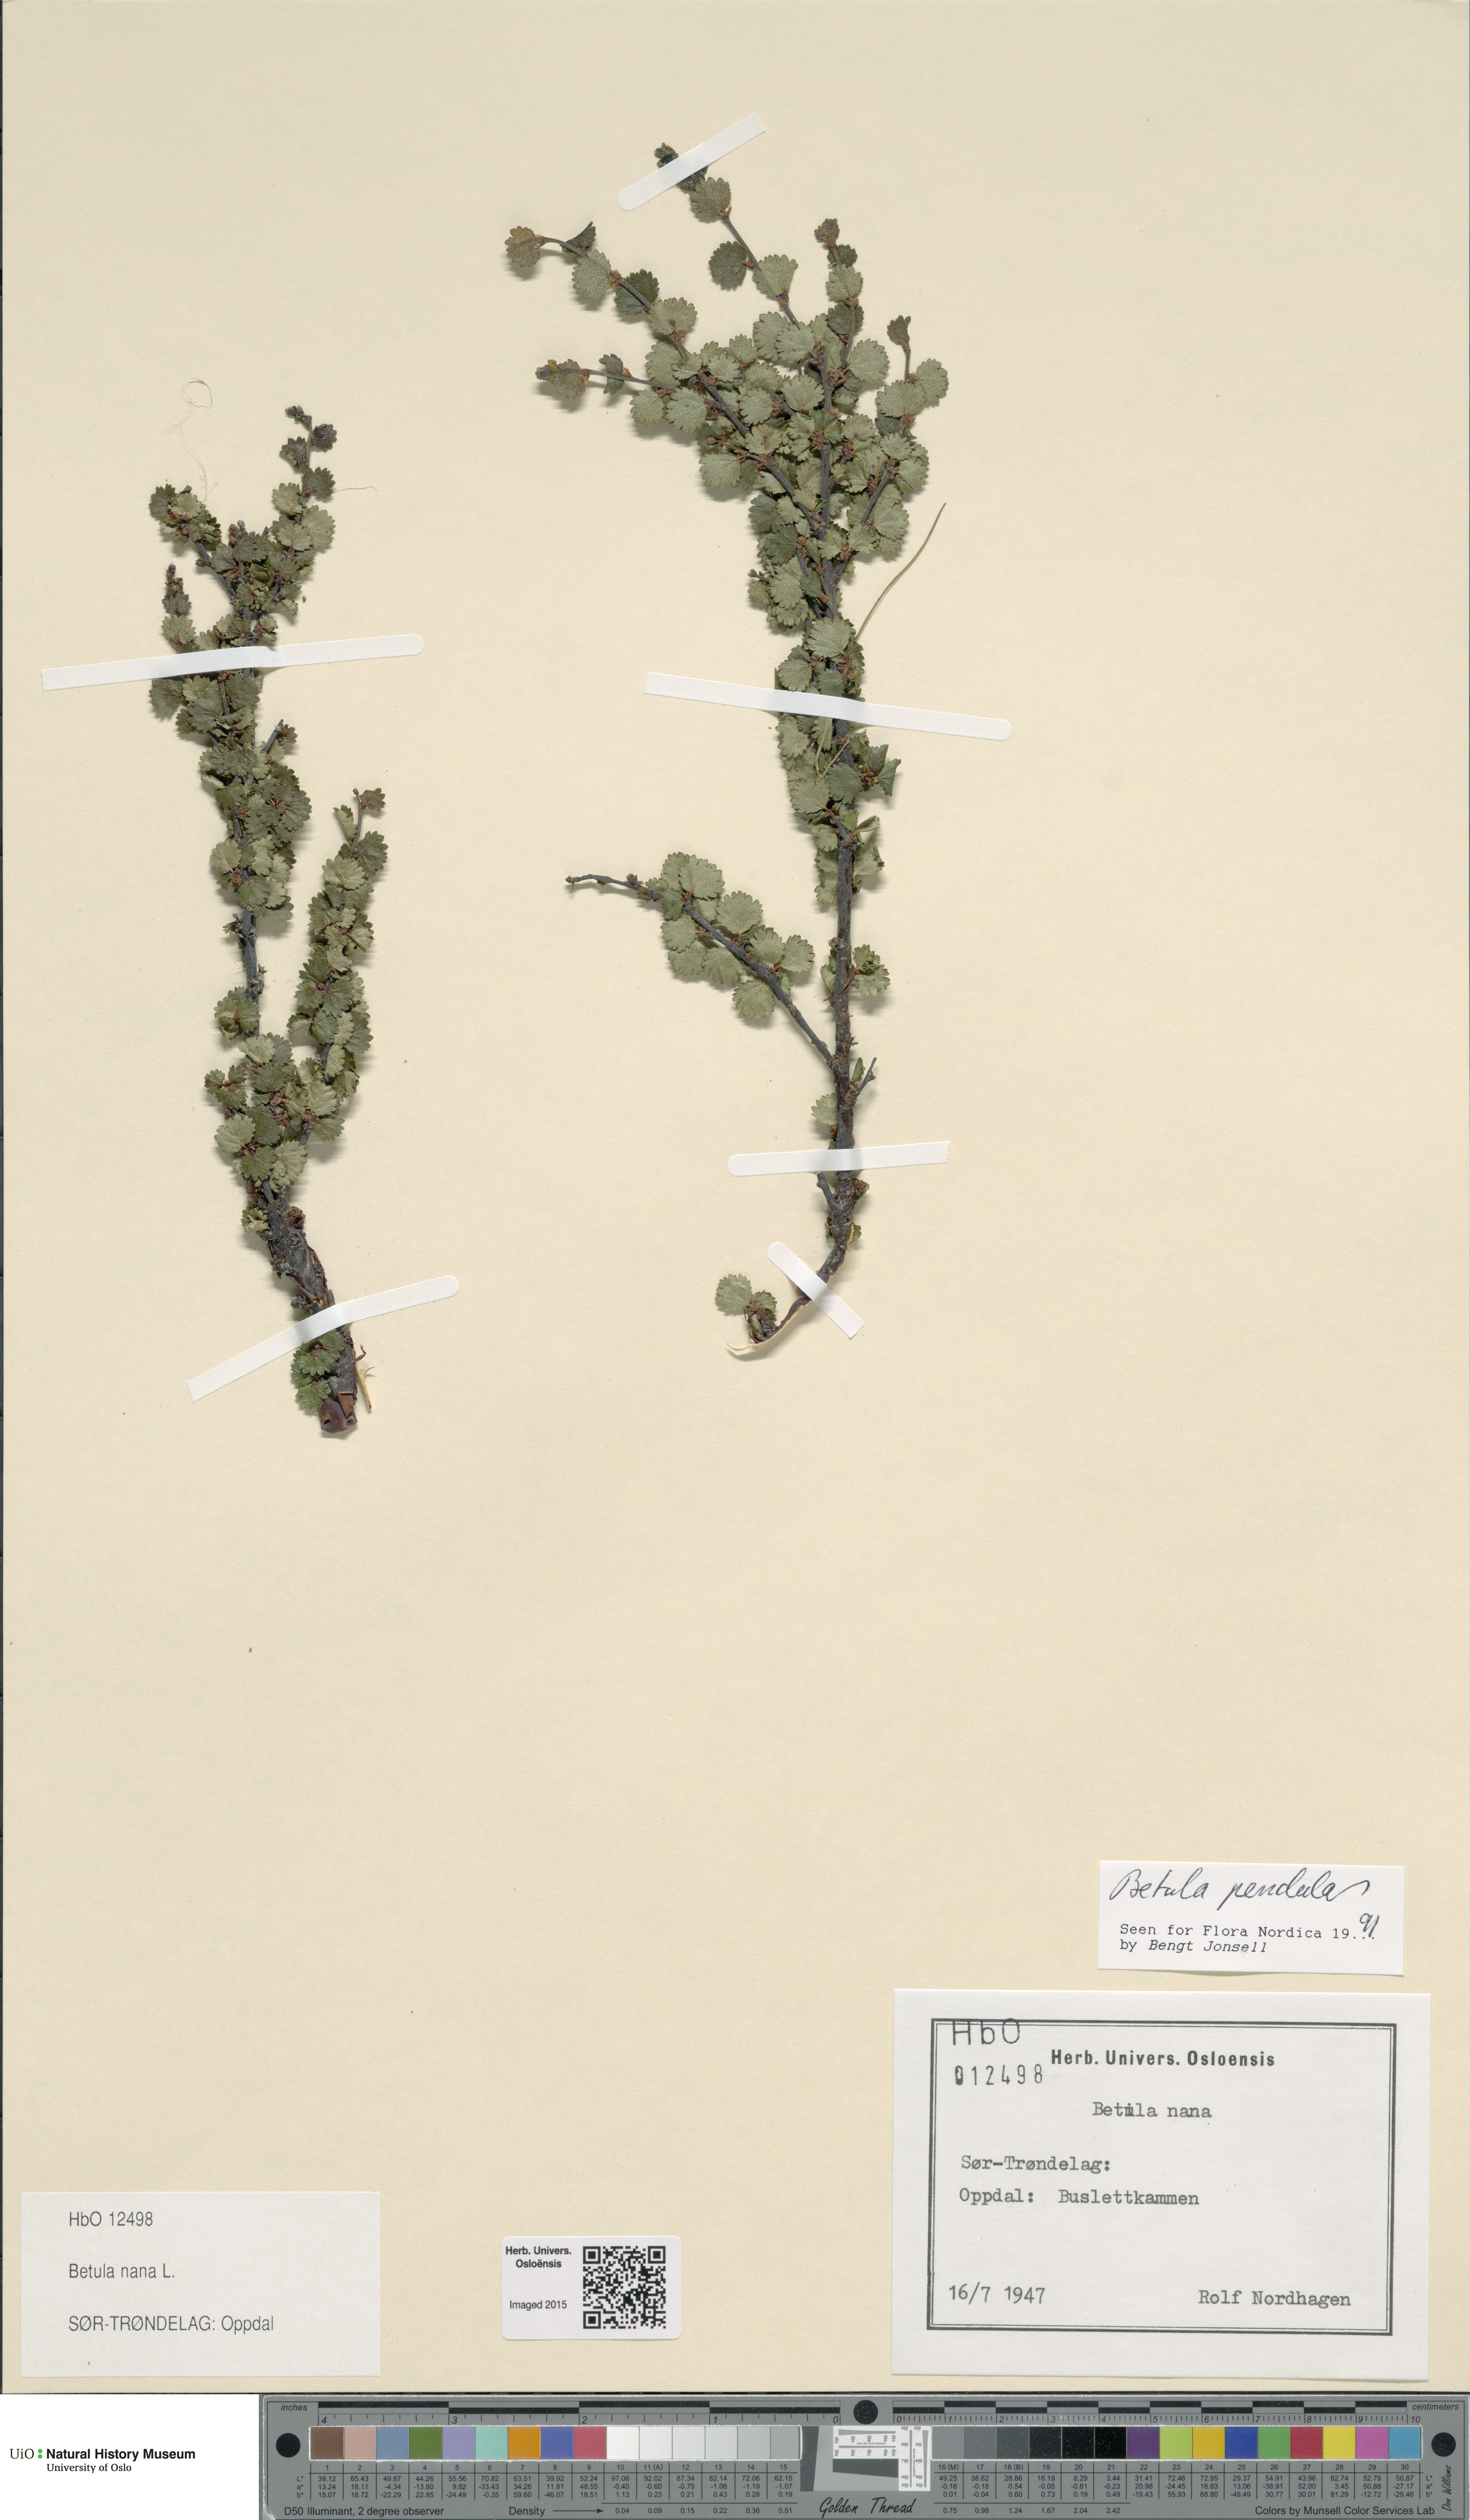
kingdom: Plantae
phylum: Tracheophyta
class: Magnoliopsida
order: Fagales
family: Betulaceae
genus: Betula
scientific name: Betula nana
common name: Arctic dwarf birch
